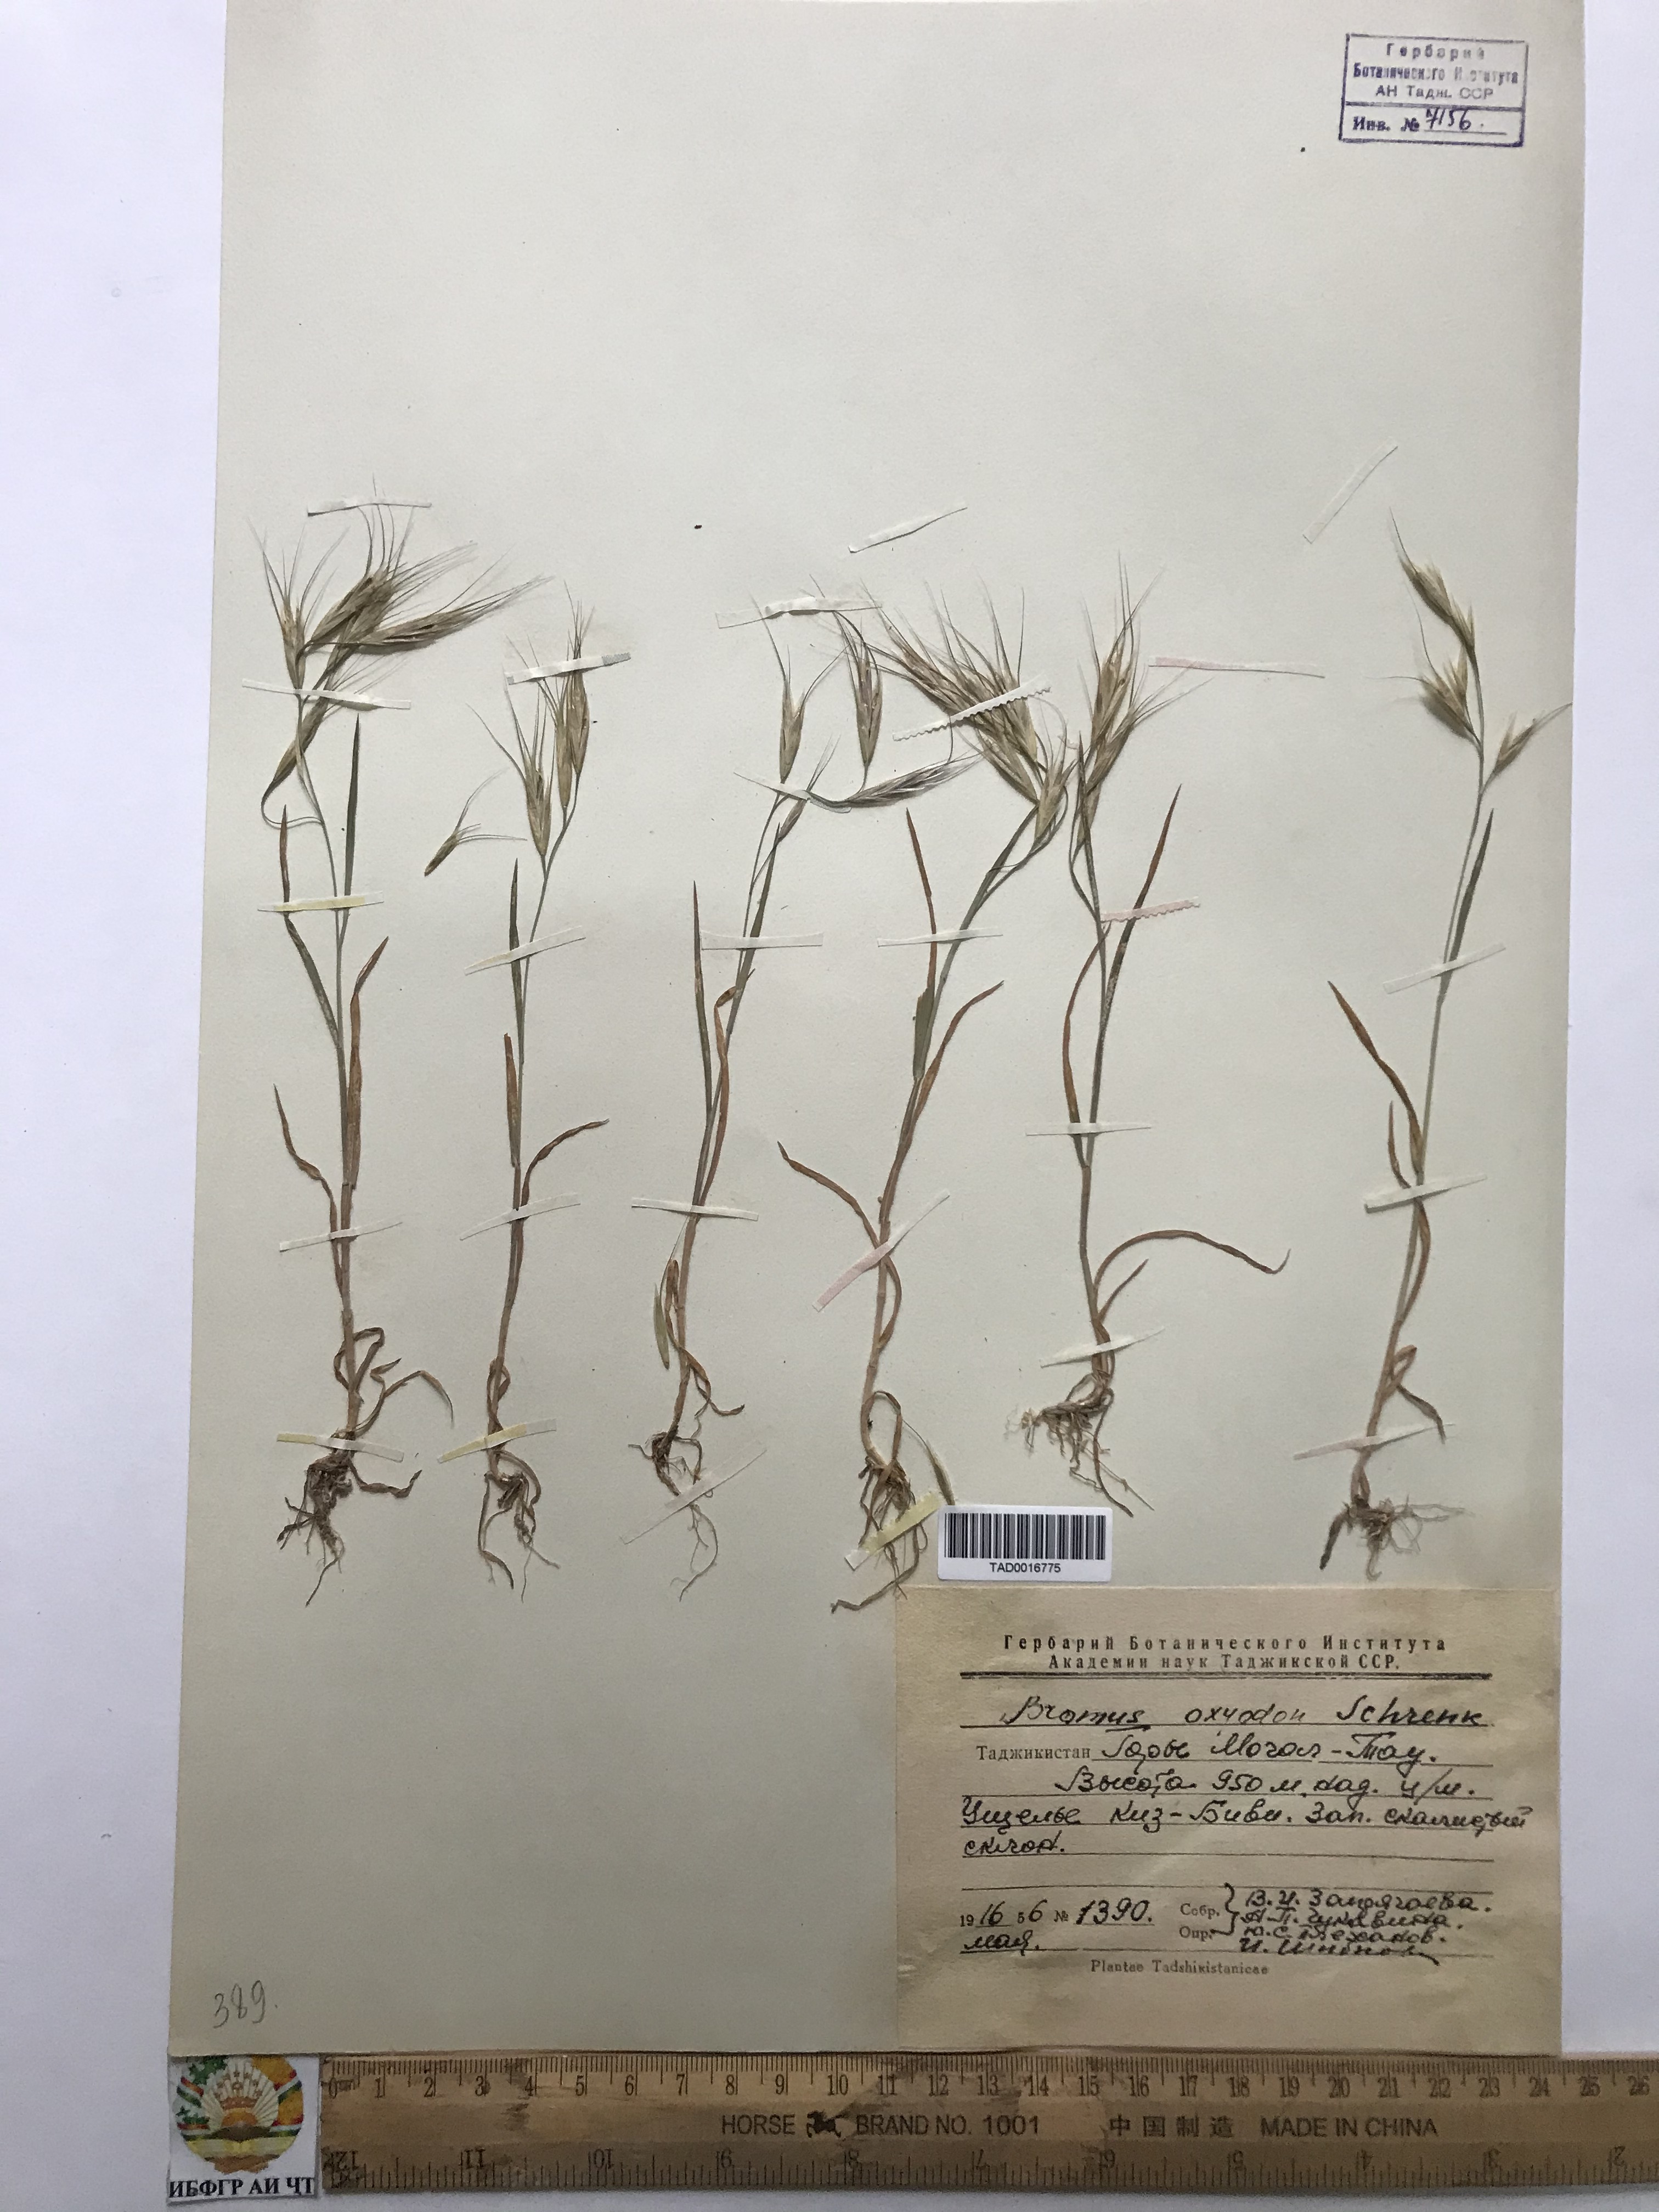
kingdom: Plantae
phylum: Tracheophyta
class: Liliopsida
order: Poales
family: Poaceae
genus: Bromus
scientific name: Bromus oxyodon
